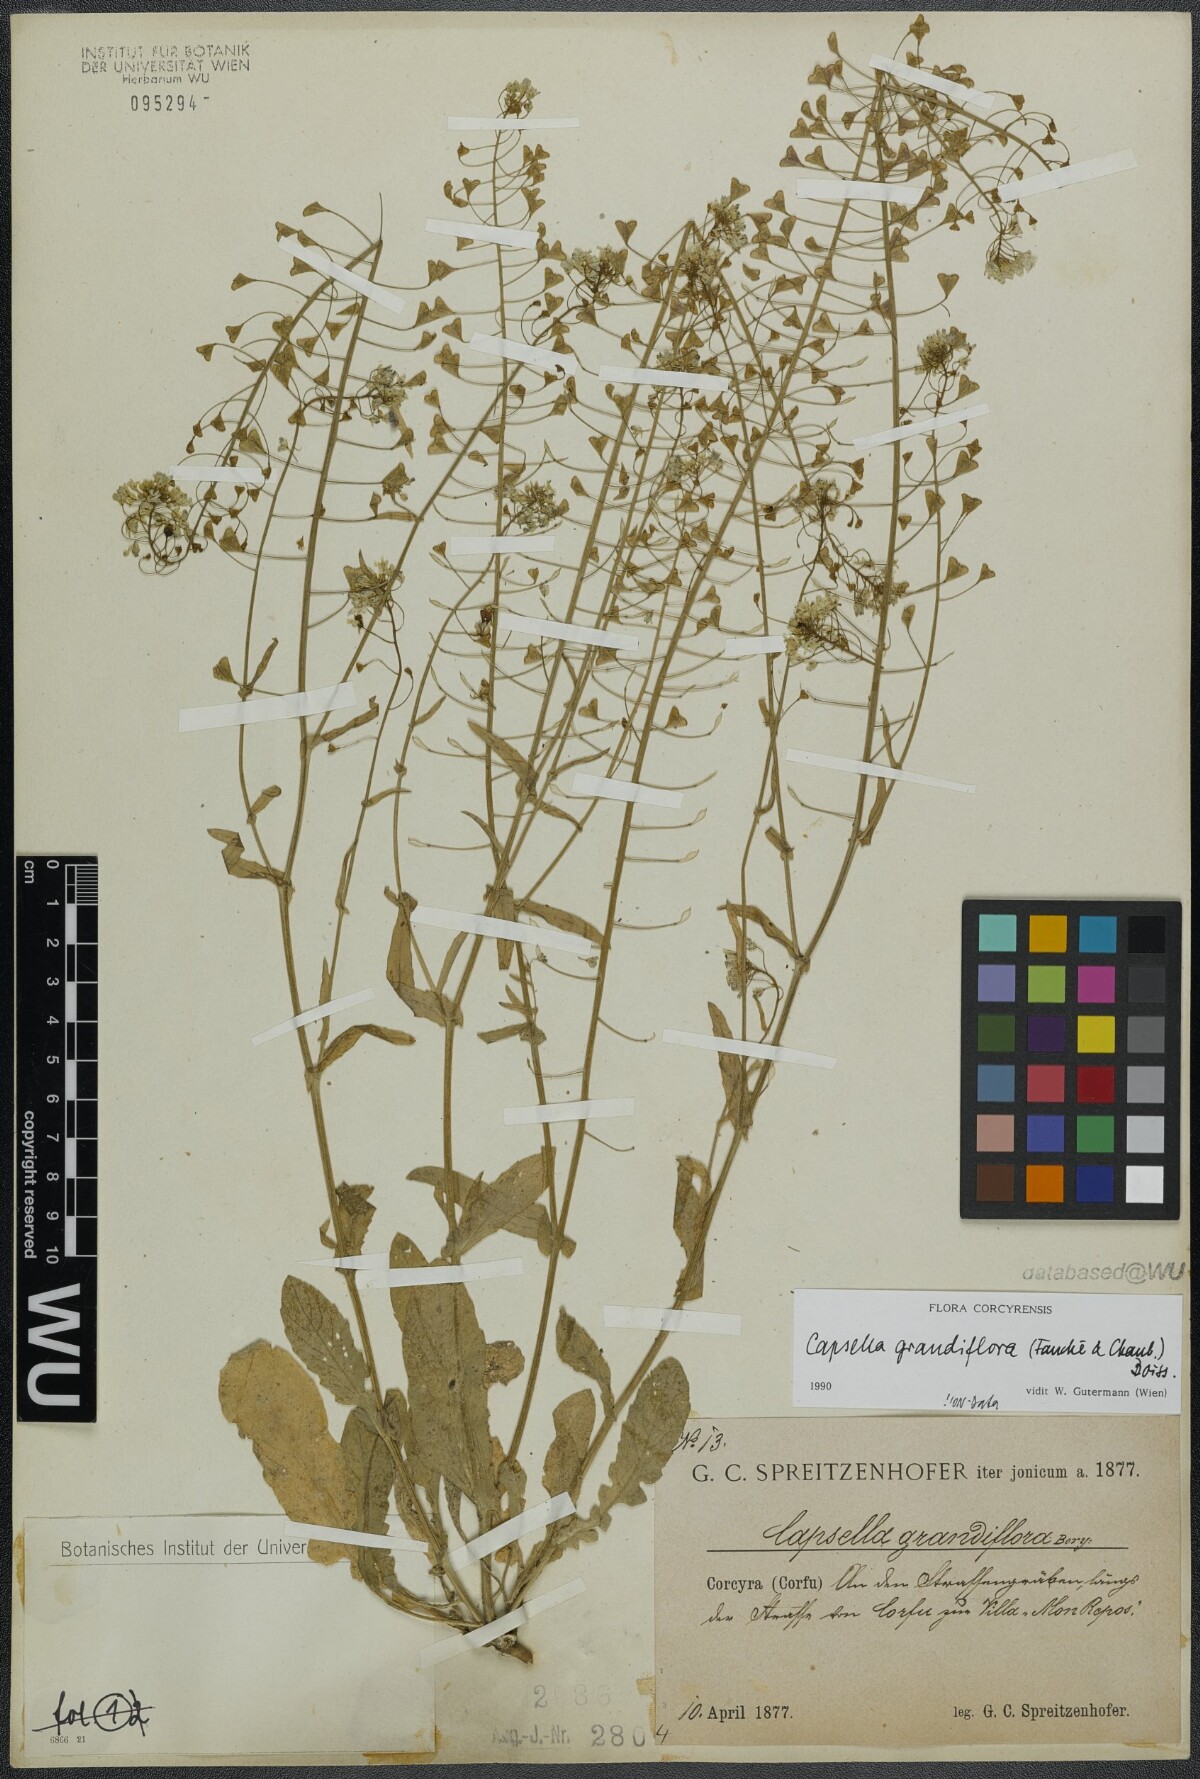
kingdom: Plantae
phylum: Tracheophyta
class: Magnoliopsida
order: Brassicales
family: Brassicaceae
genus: Capsella
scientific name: Capsella grandiflora
